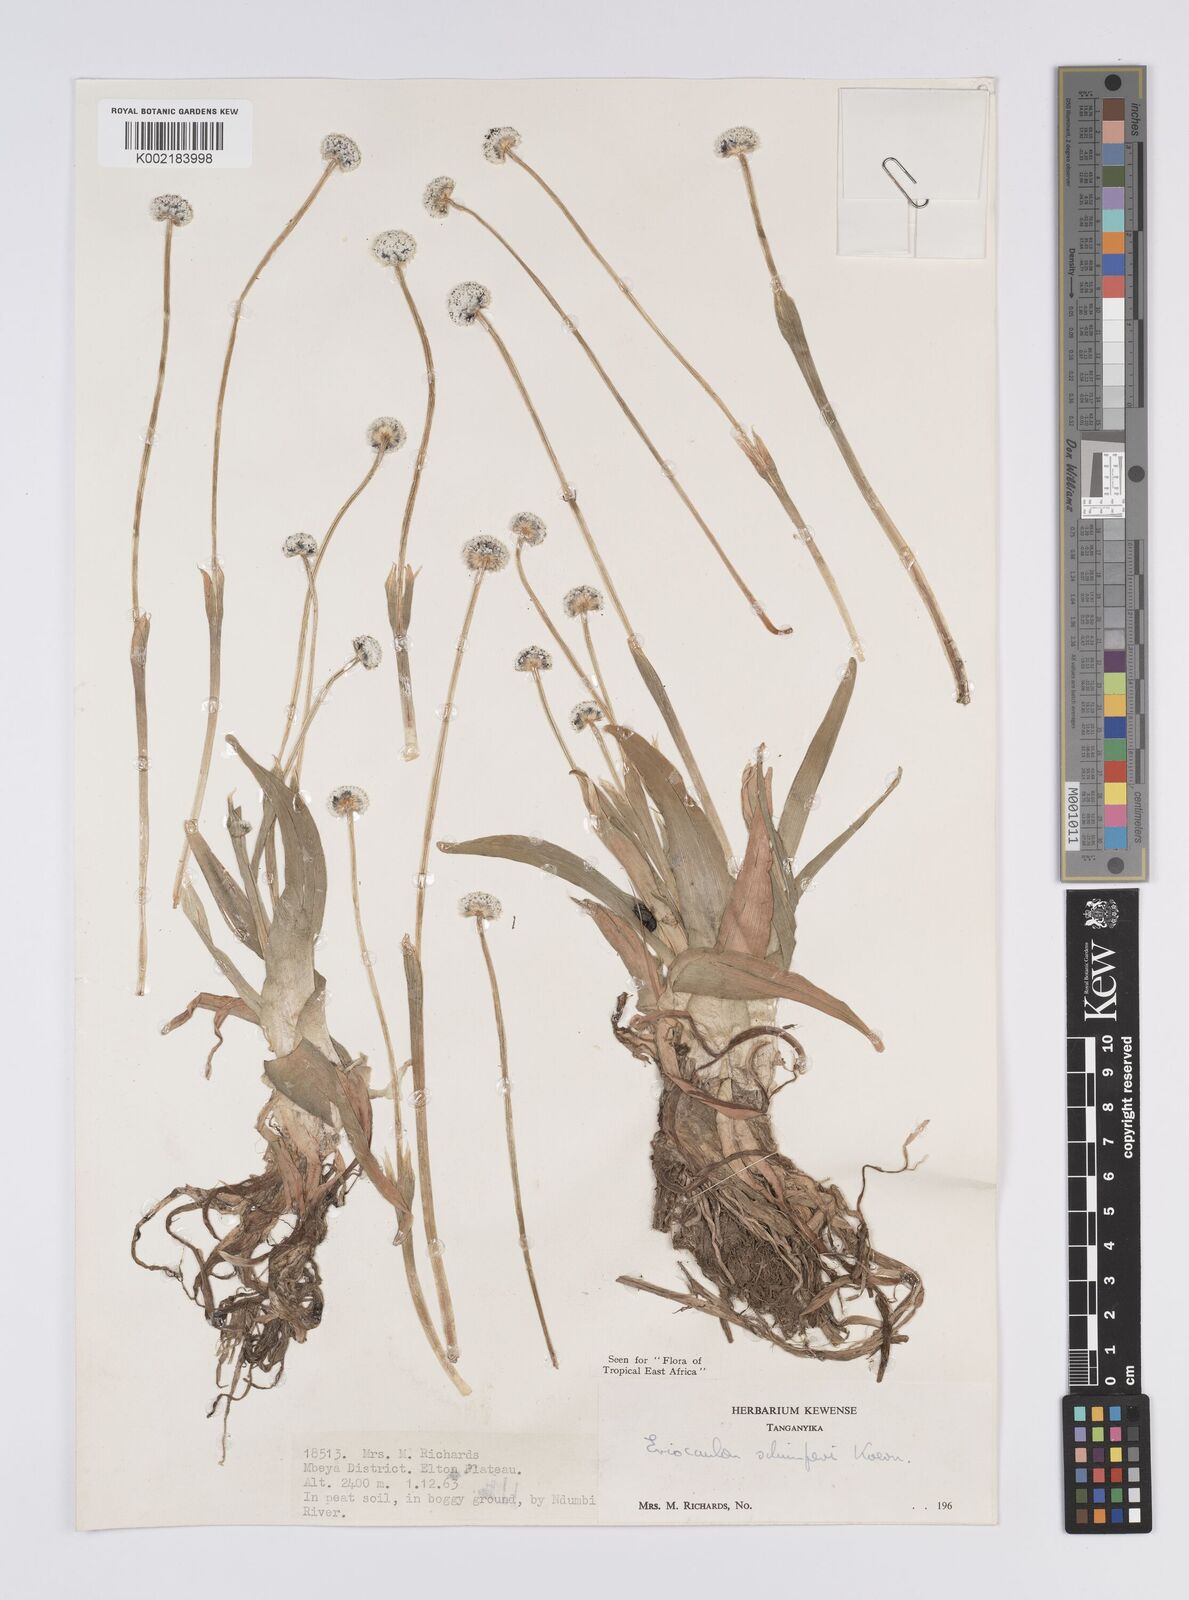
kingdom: Plantae
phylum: Tracheophyta
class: Liliopsida
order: Poales
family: Eriocaulaceae
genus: Eriocaulon
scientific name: Eriocaulon schimperi
